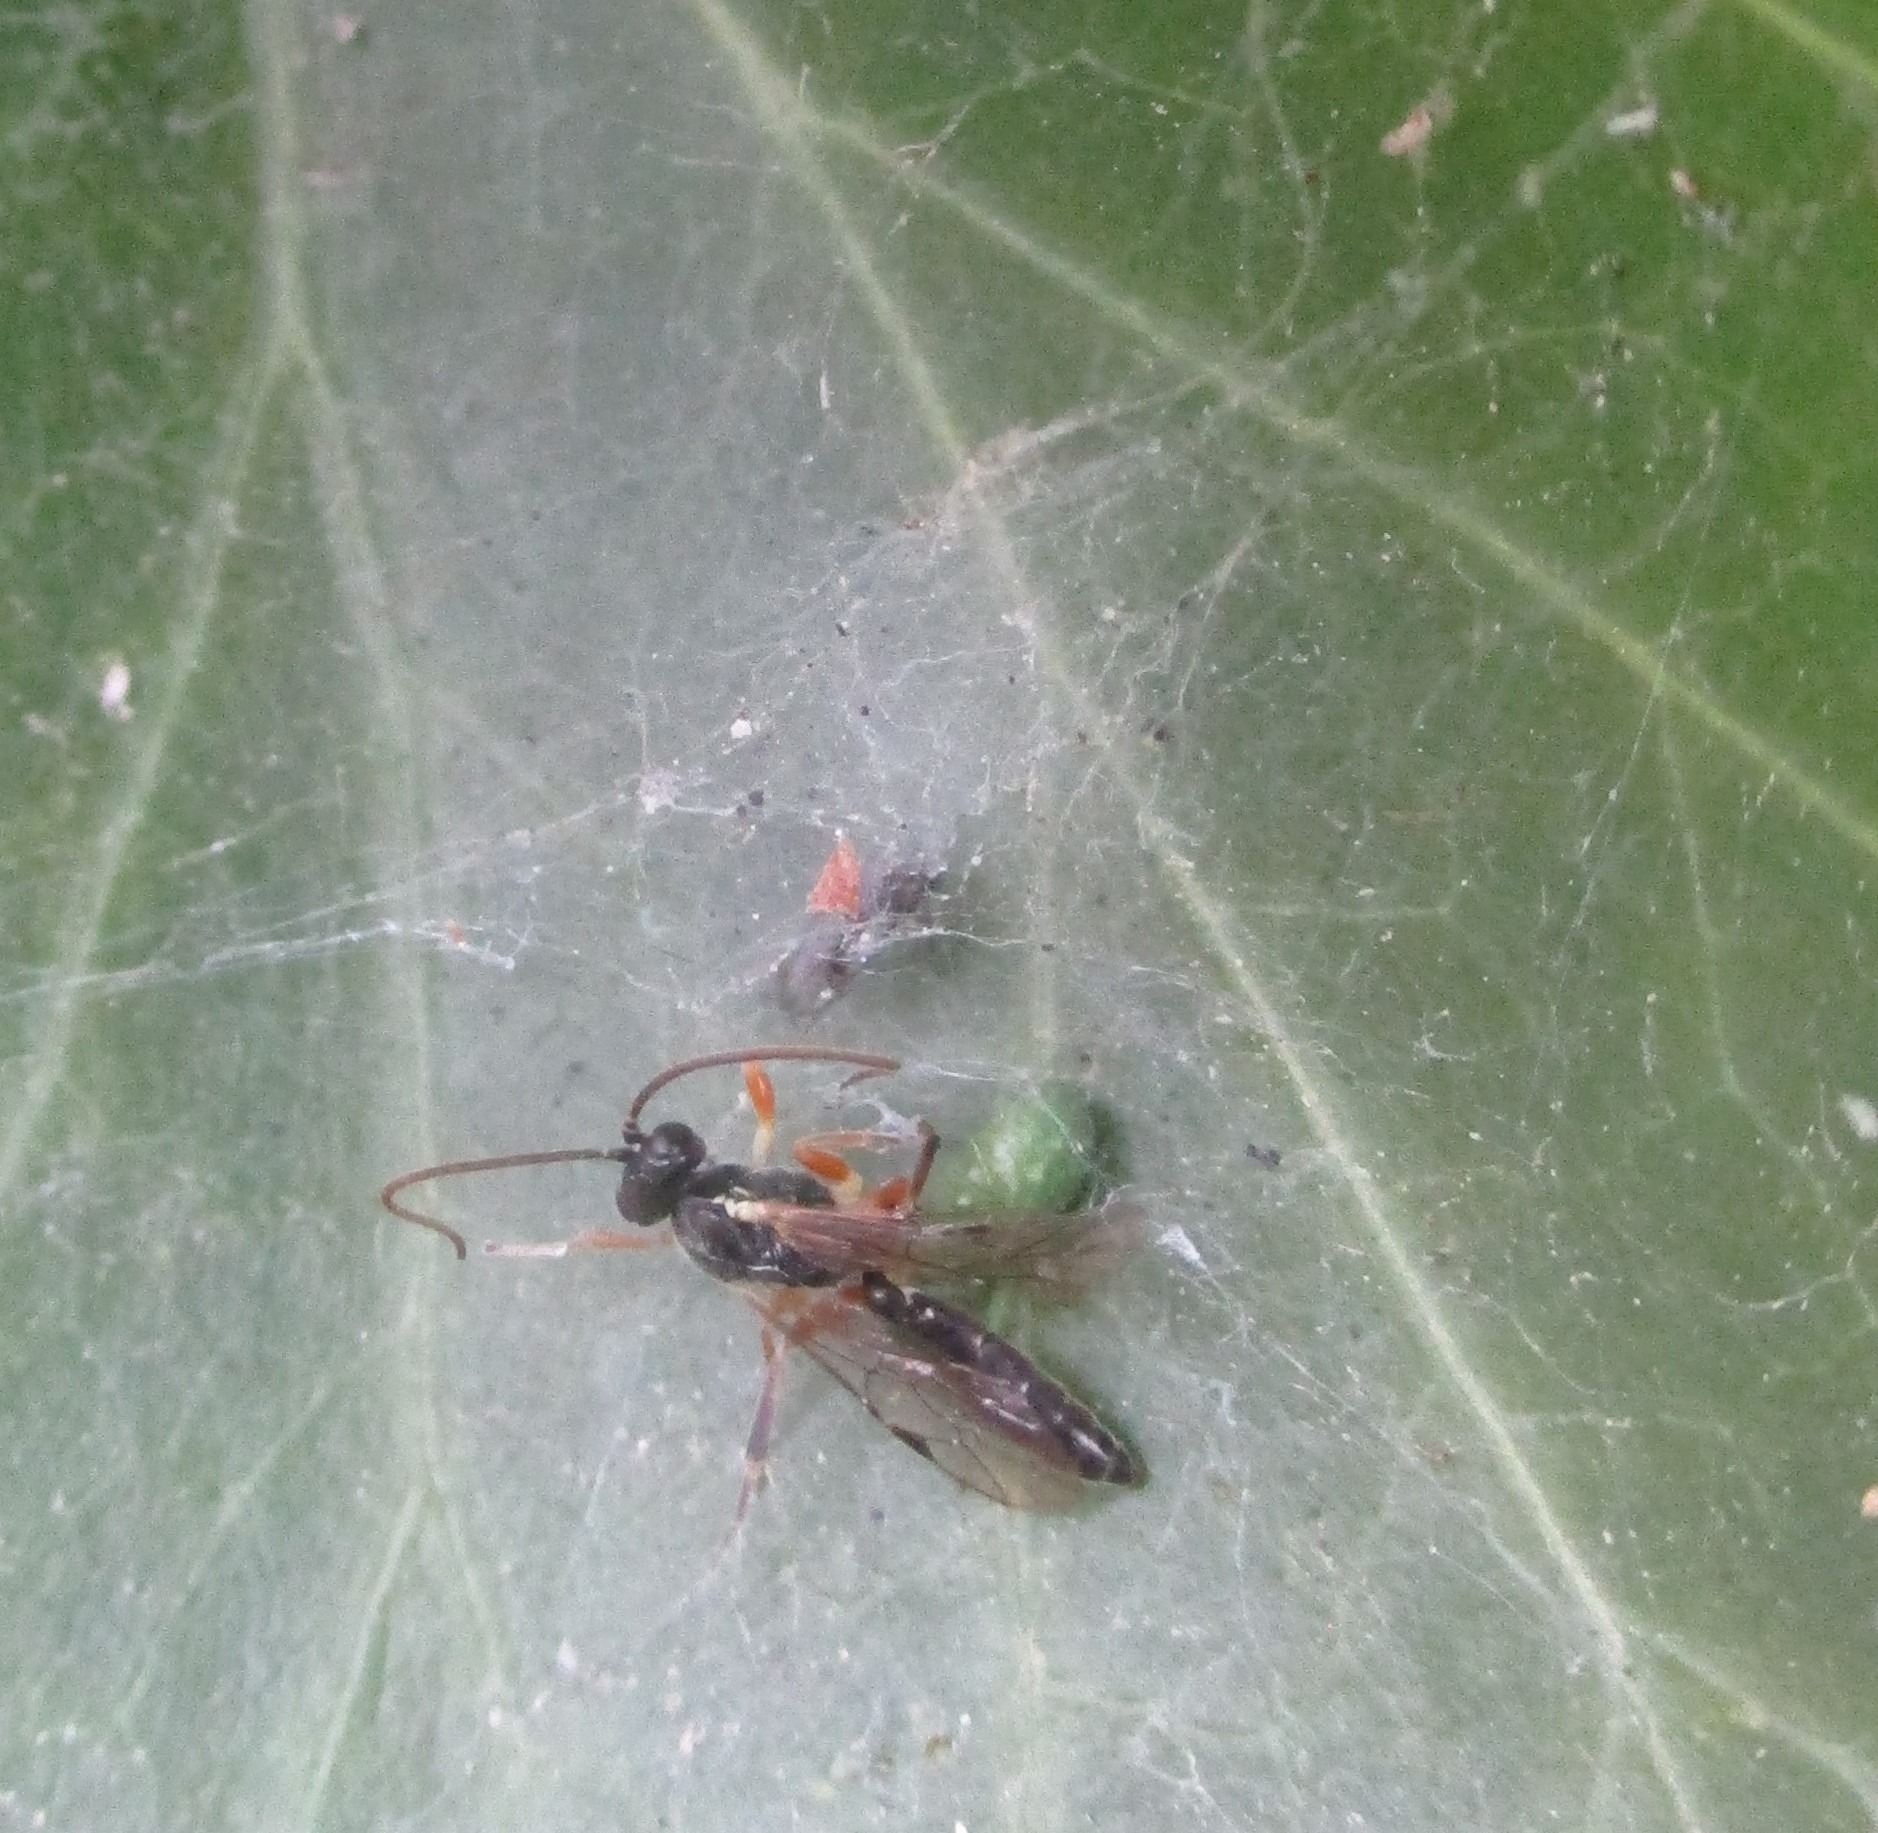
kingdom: Animalia
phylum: Arthropoda
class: Arachnida
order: Araneae
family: Dictynidae
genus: Nigma
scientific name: Nigma walckenaeri
